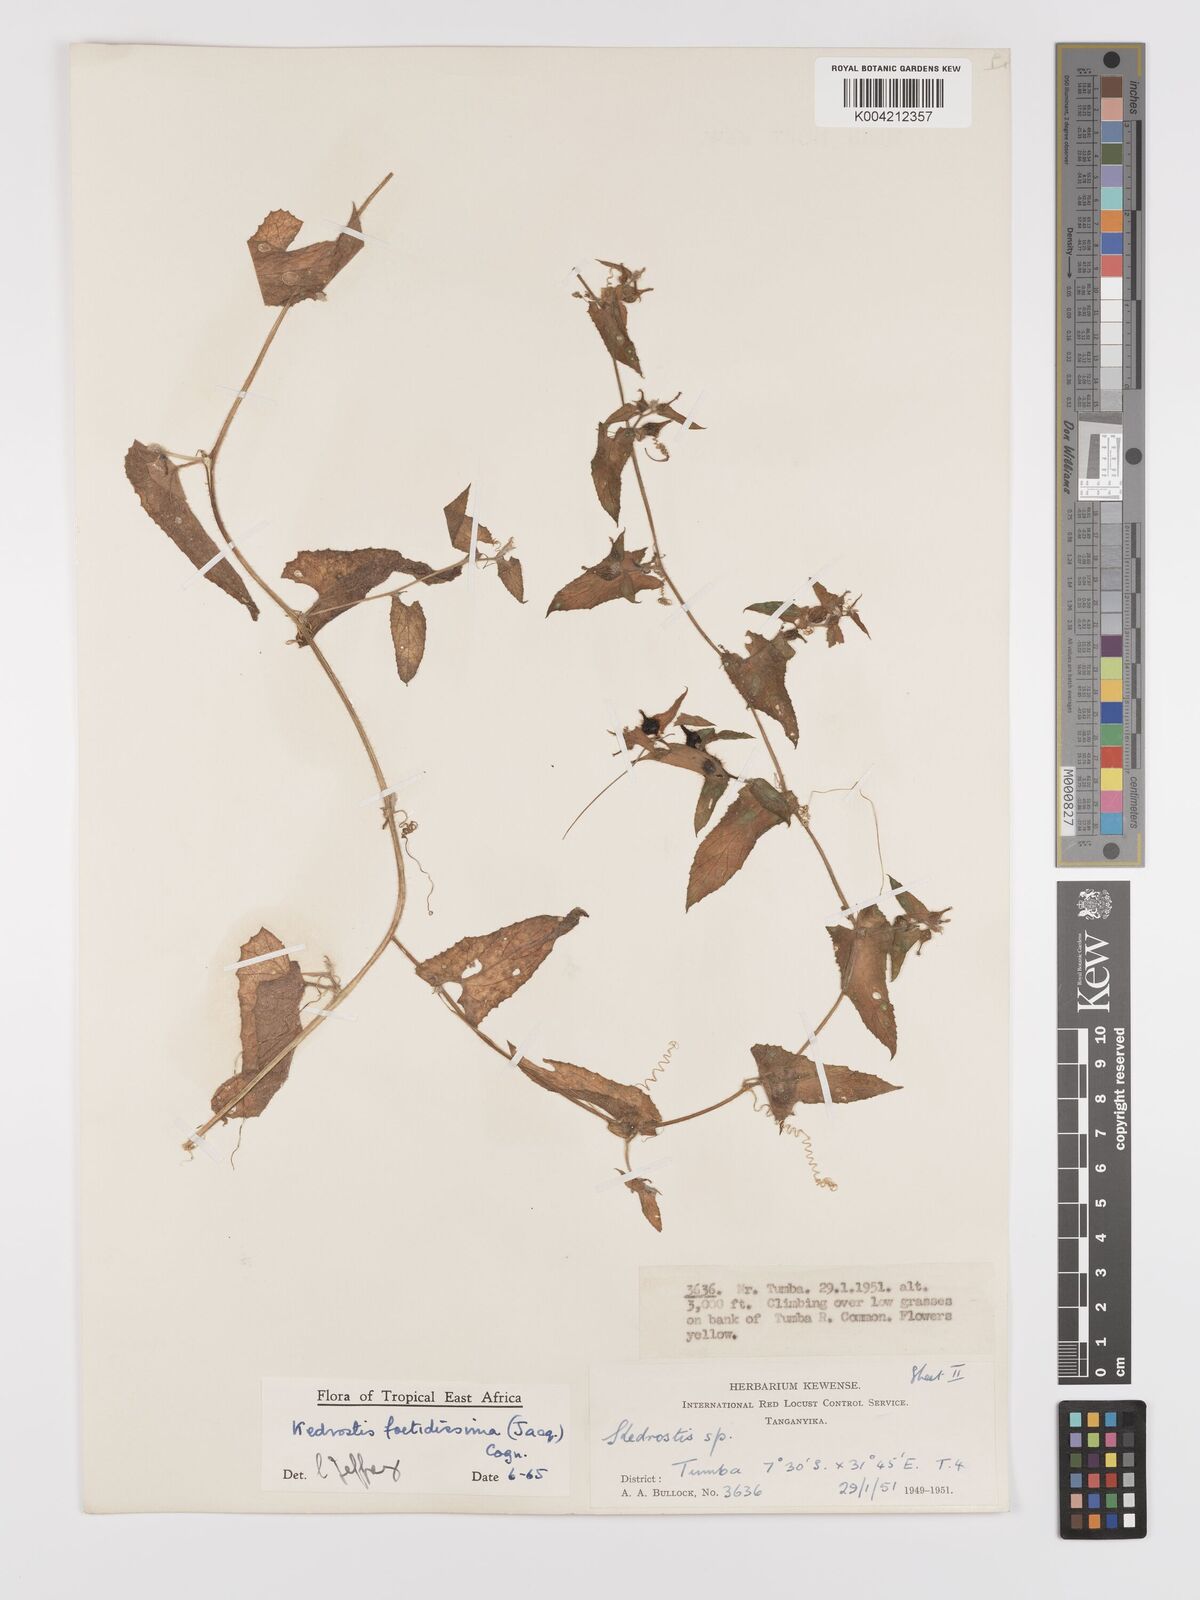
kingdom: Plantae
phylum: Tracheophyta
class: Magnoliopsida
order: Cucurbitales
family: Cucurbitaceae
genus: Kedrostis
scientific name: Kedrostis foetidissima
